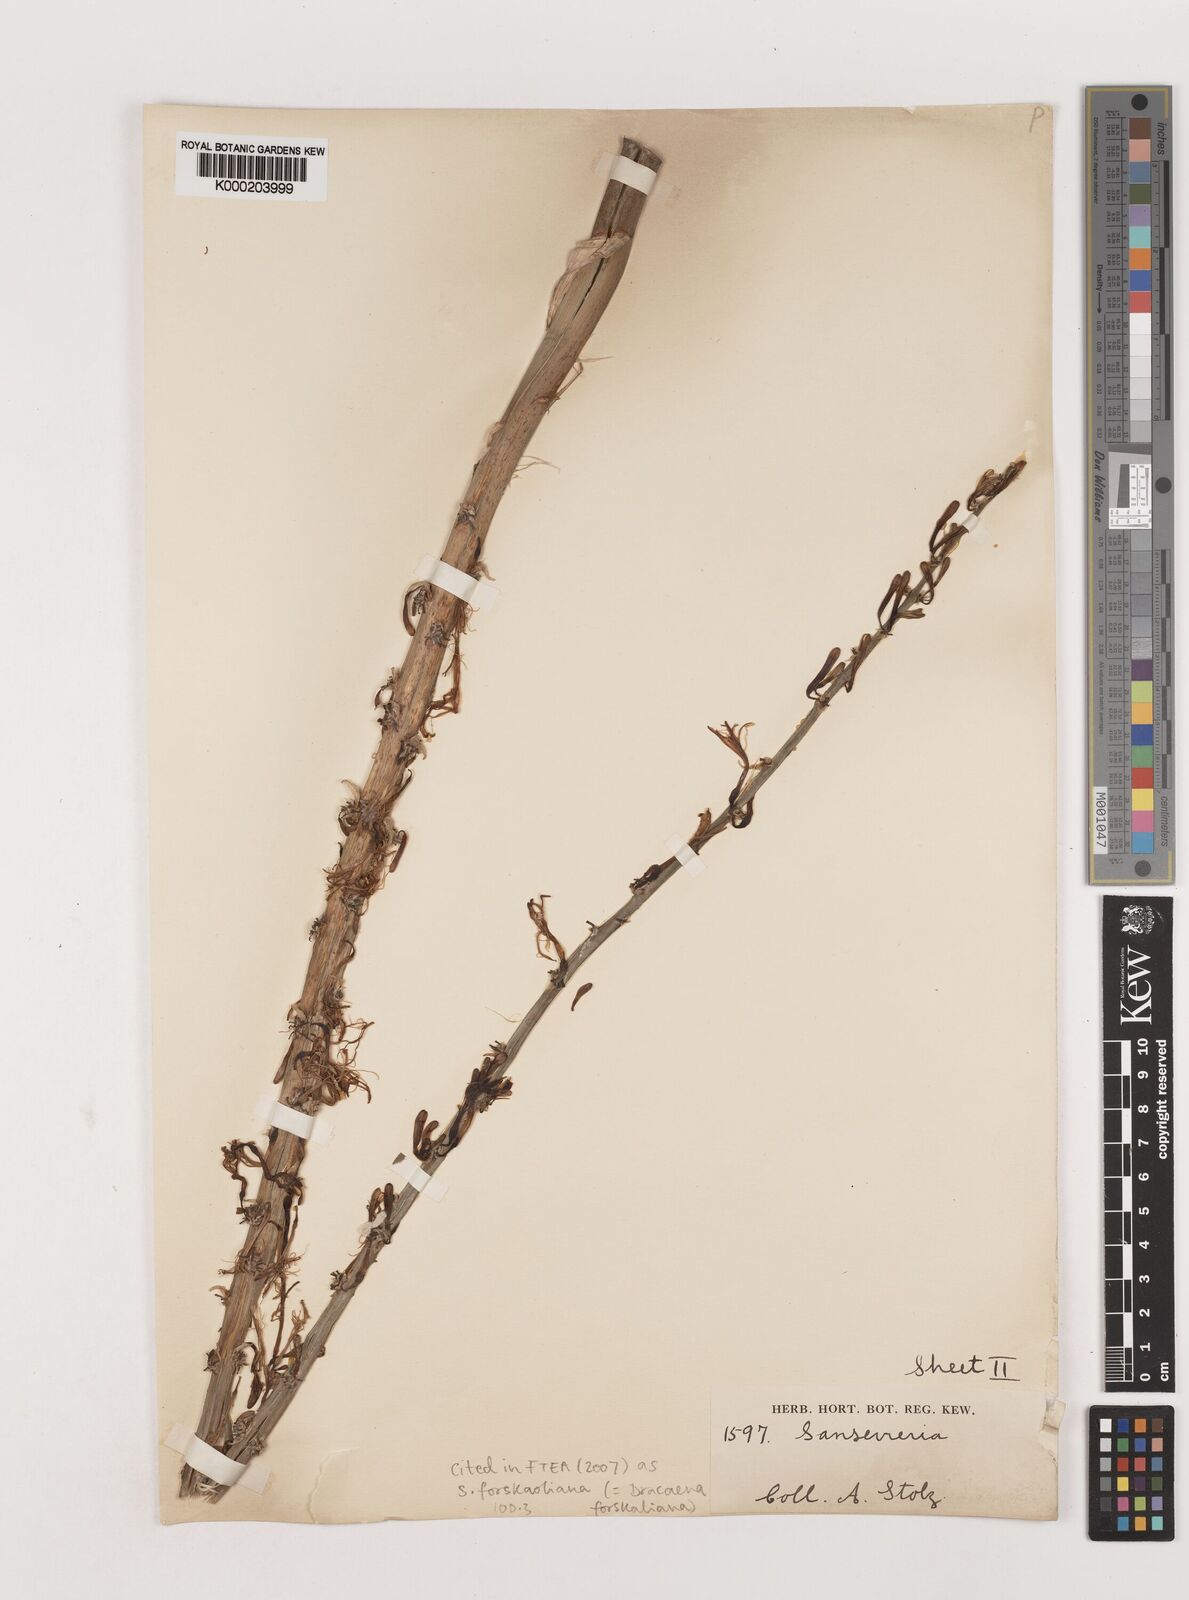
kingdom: Plantae
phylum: Tracheophyta
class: Liliopsida
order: Asparagales
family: Asparagaceae
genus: Dracaena
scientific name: Dracaena forskaliana
